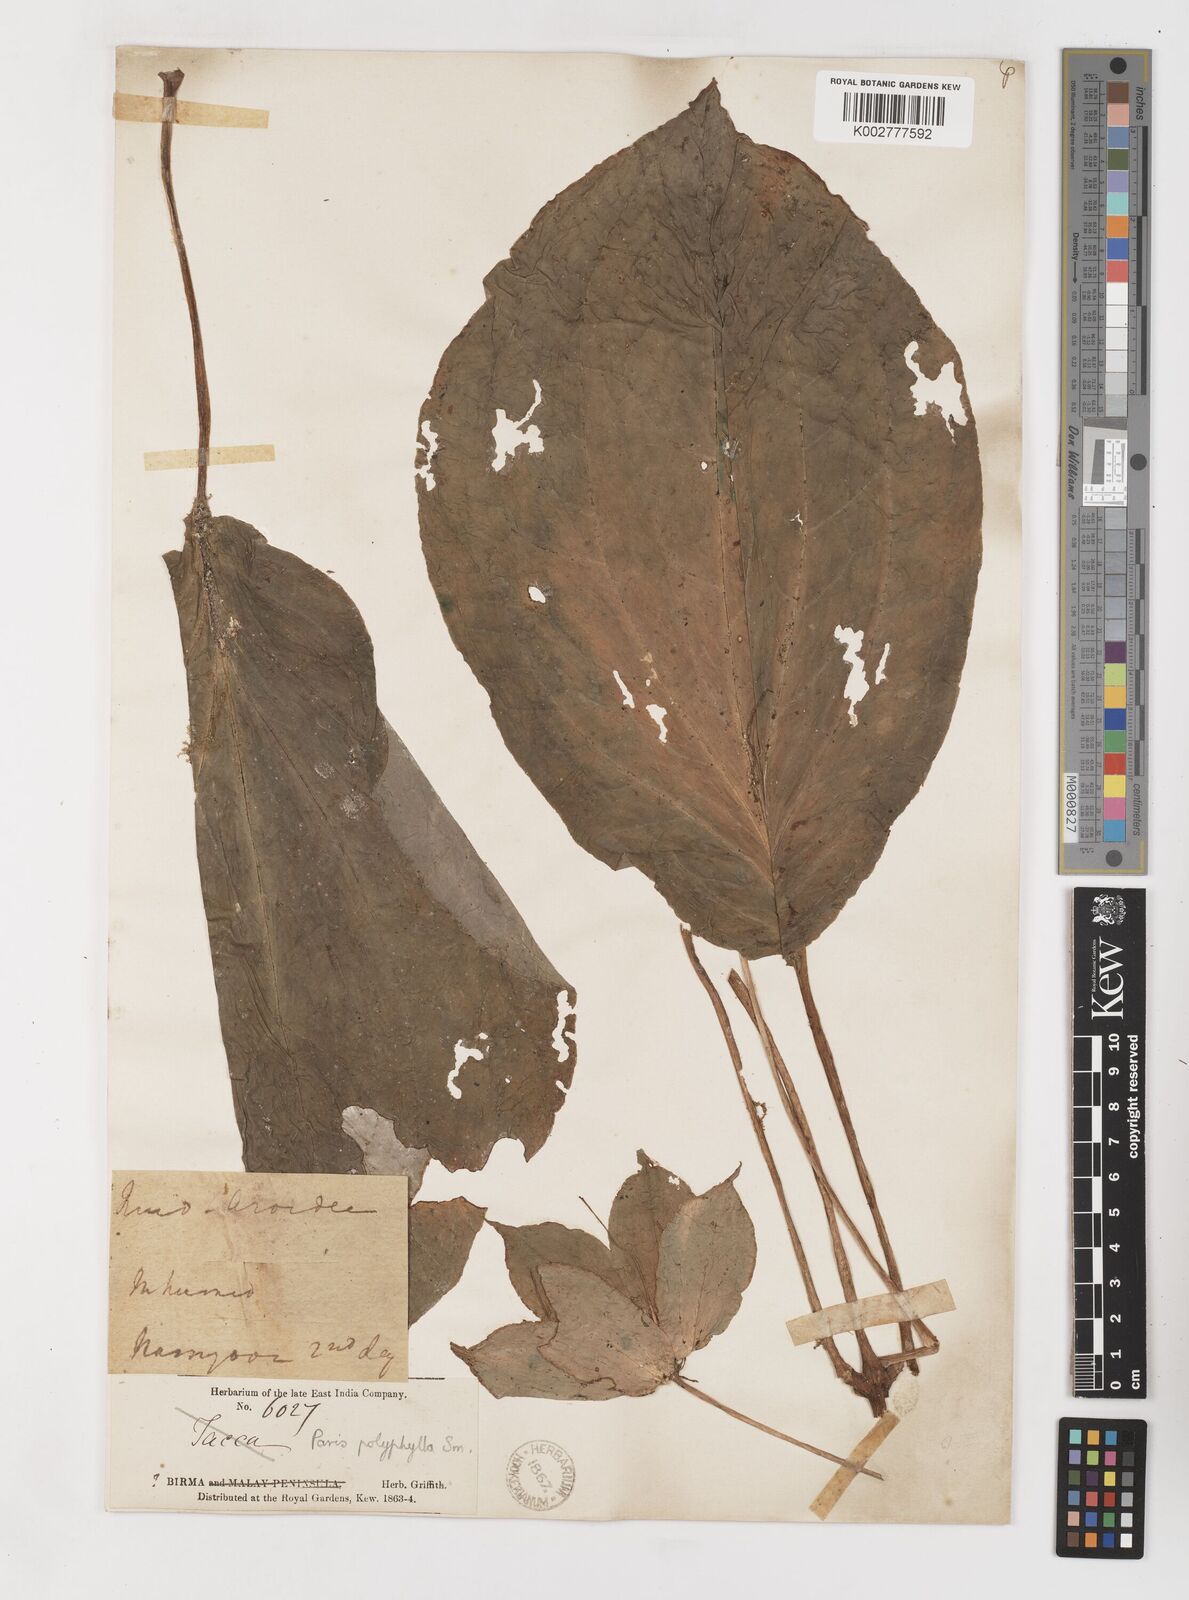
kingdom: Plantae
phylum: Tracheophyta
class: Liliopsida
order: Liliales
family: Melanthiaceae
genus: Paris
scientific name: Paris polyphylla
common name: Love apple
